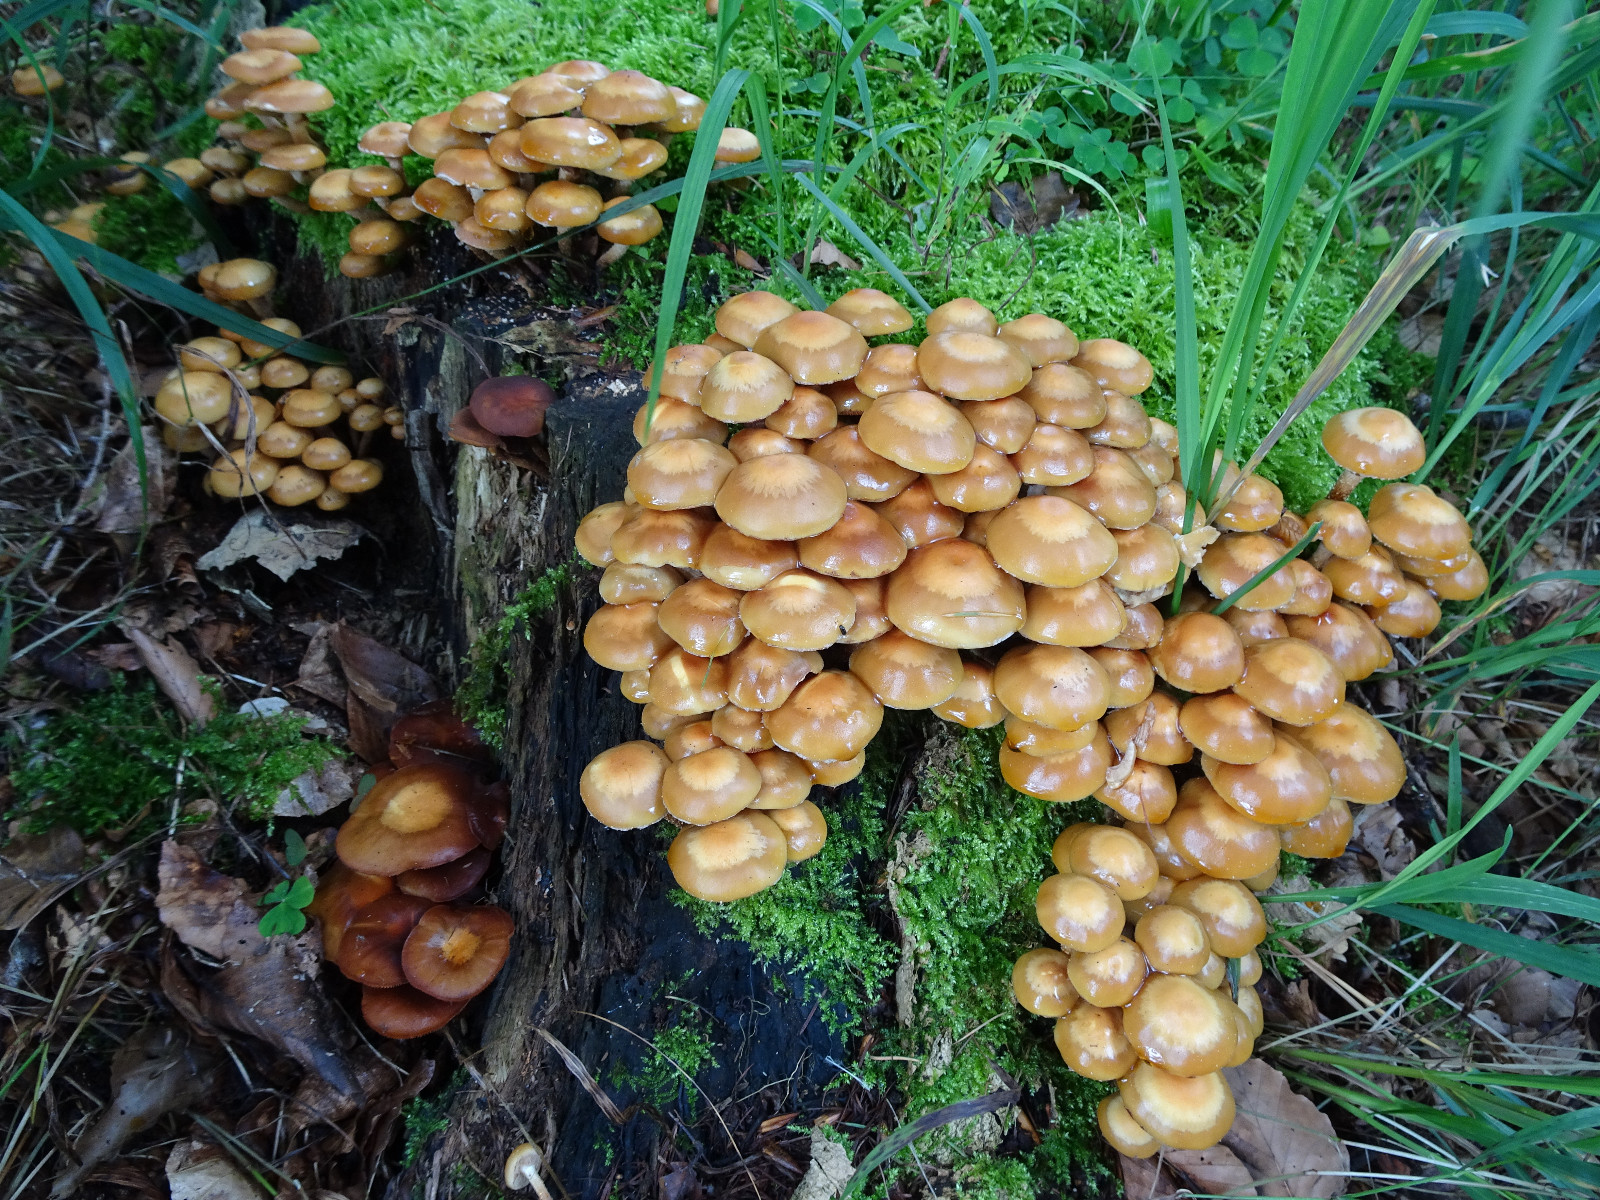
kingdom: Fungi
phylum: Basidiomycota
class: Agaricomycetes
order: Agaricales
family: Strophariaceae
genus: Kuehneromyces
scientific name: Kuehneromyces mutabilis
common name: foranderlig skælhat
